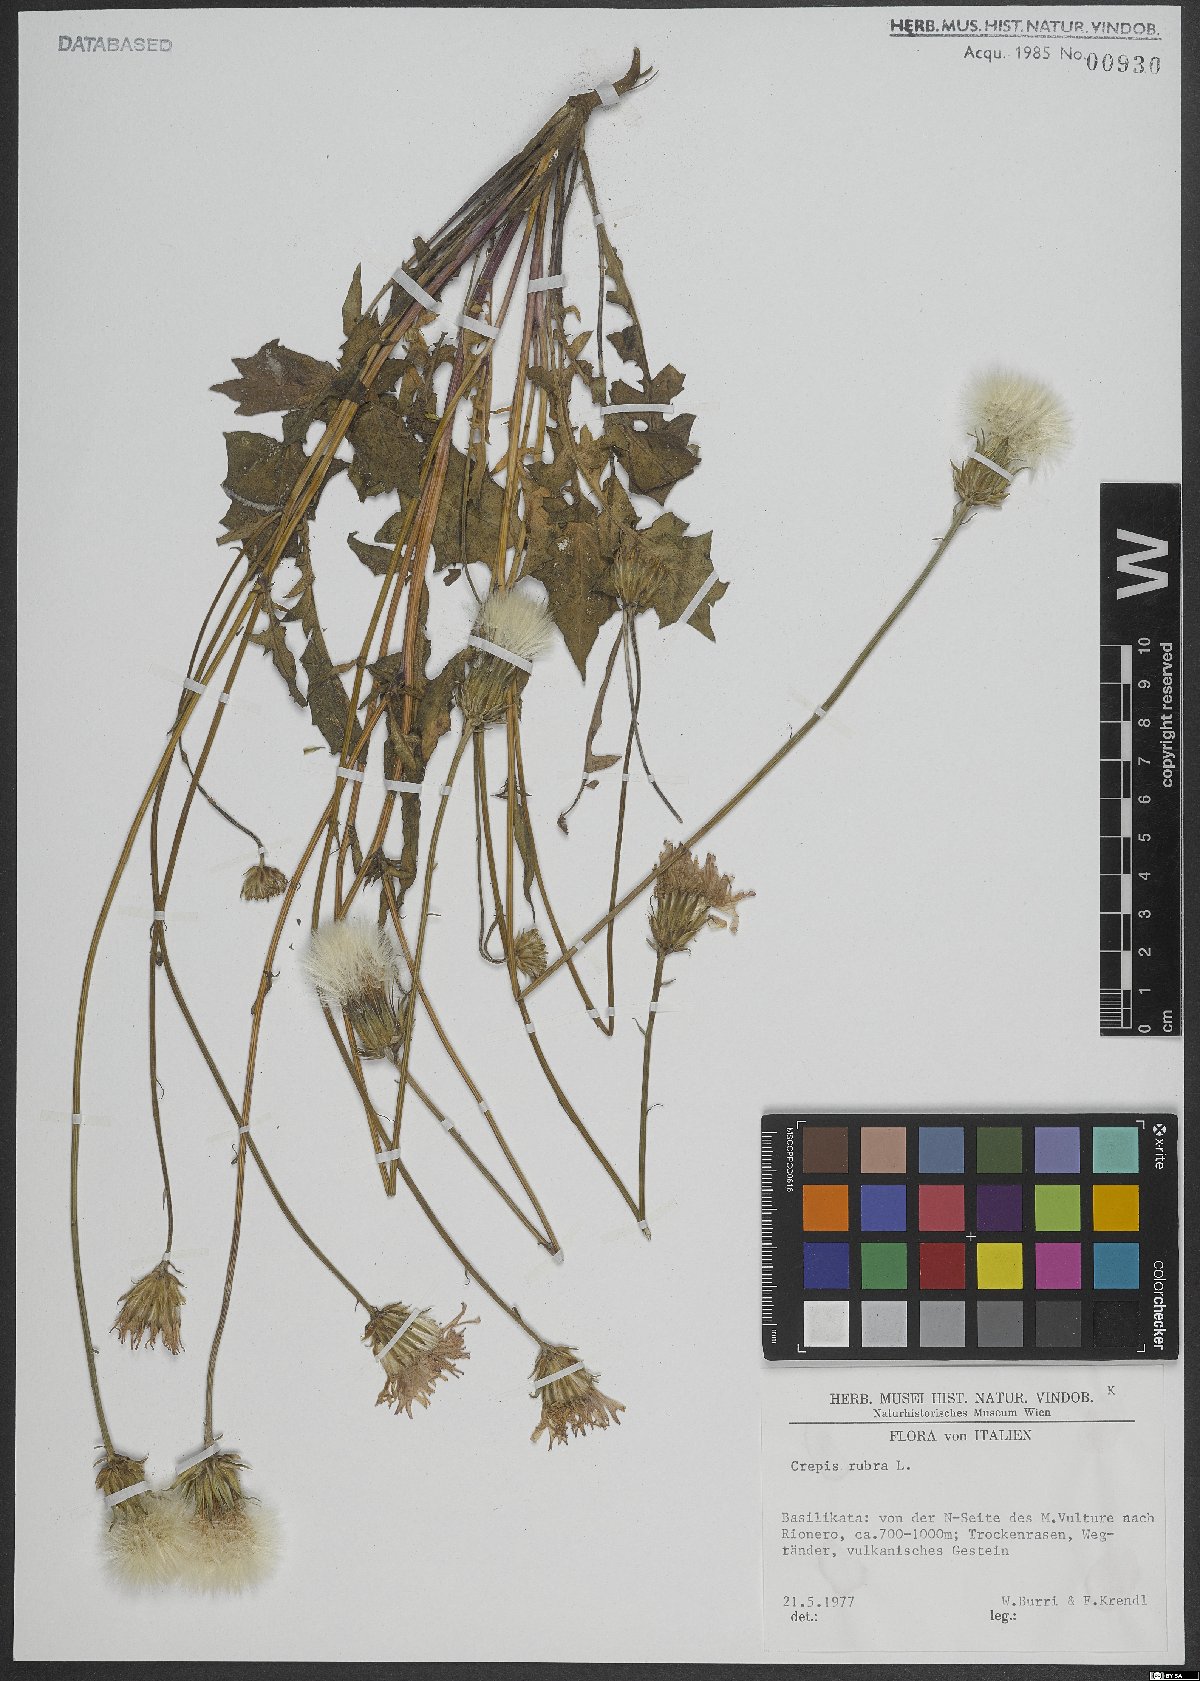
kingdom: Plantae
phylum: Tracheophyta
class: Magnoliopsida
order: Asterales
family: Asteraceae
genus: Crepis
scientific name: Crepis rubra
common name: Pink hawk's-beard
